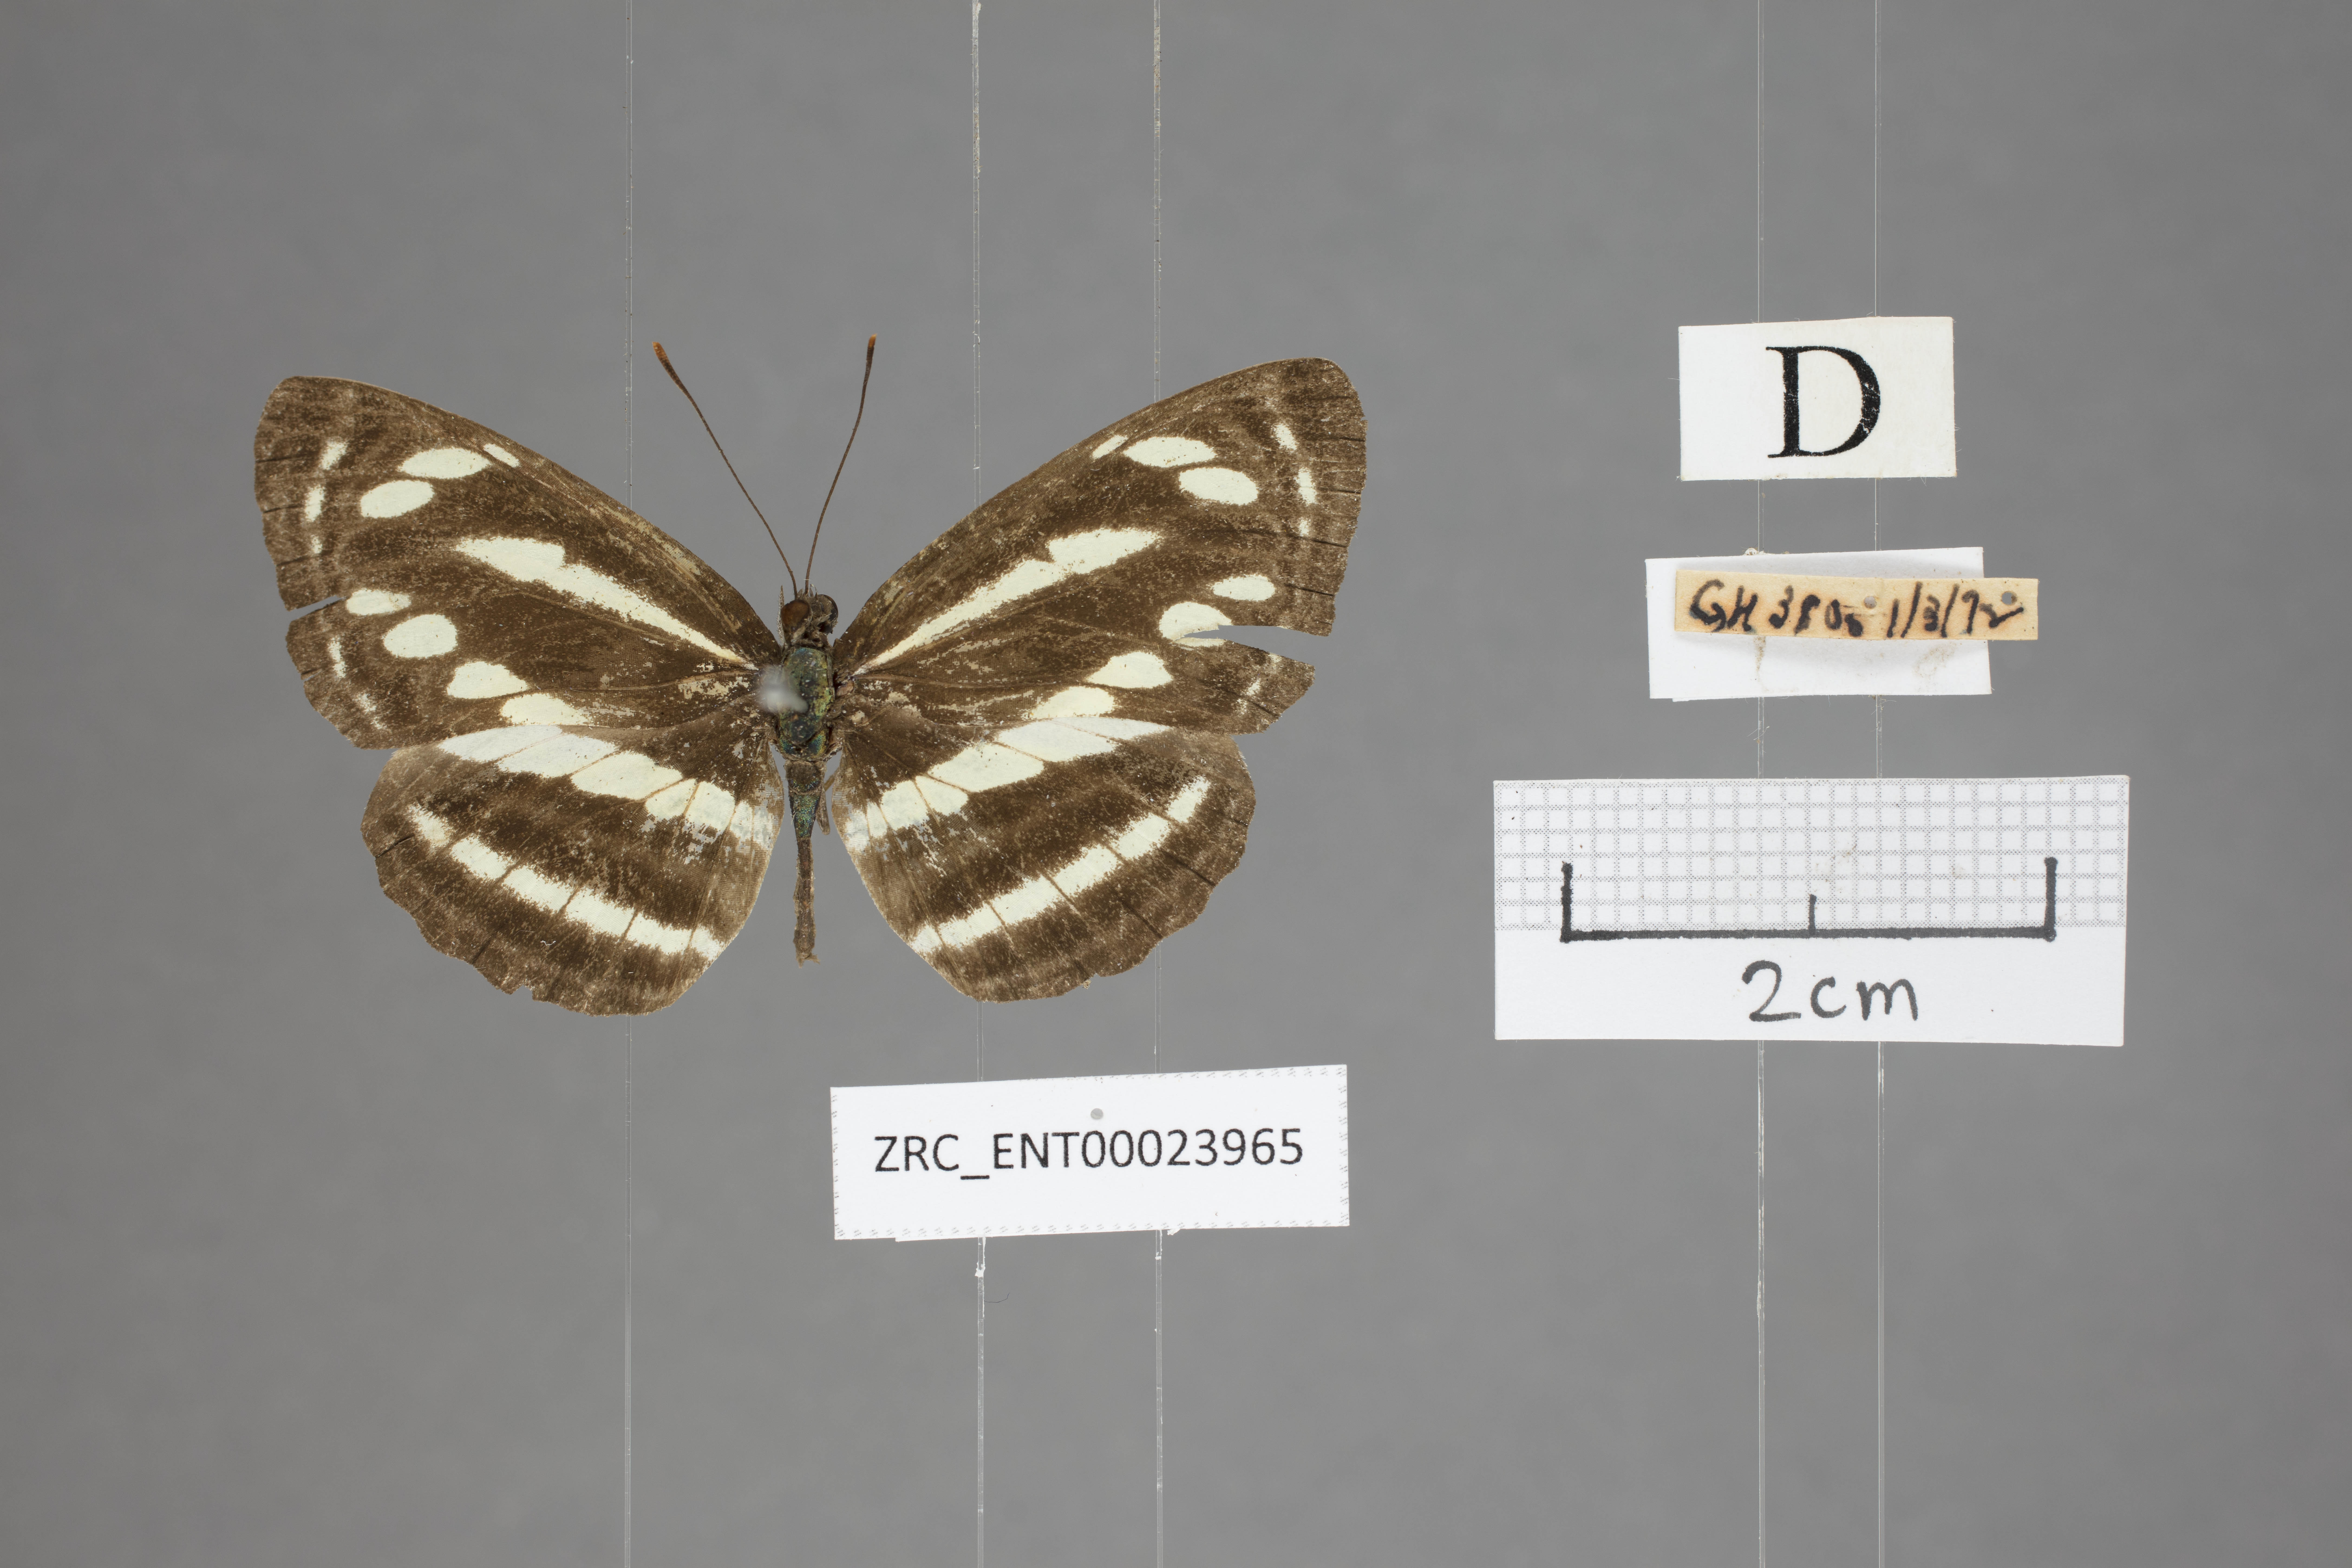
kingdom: Animalia
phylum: Arthropoda
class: Insecta
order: Lepidoptera
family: Nymphalidae
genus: Neptis
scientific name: Neptis clinioides
